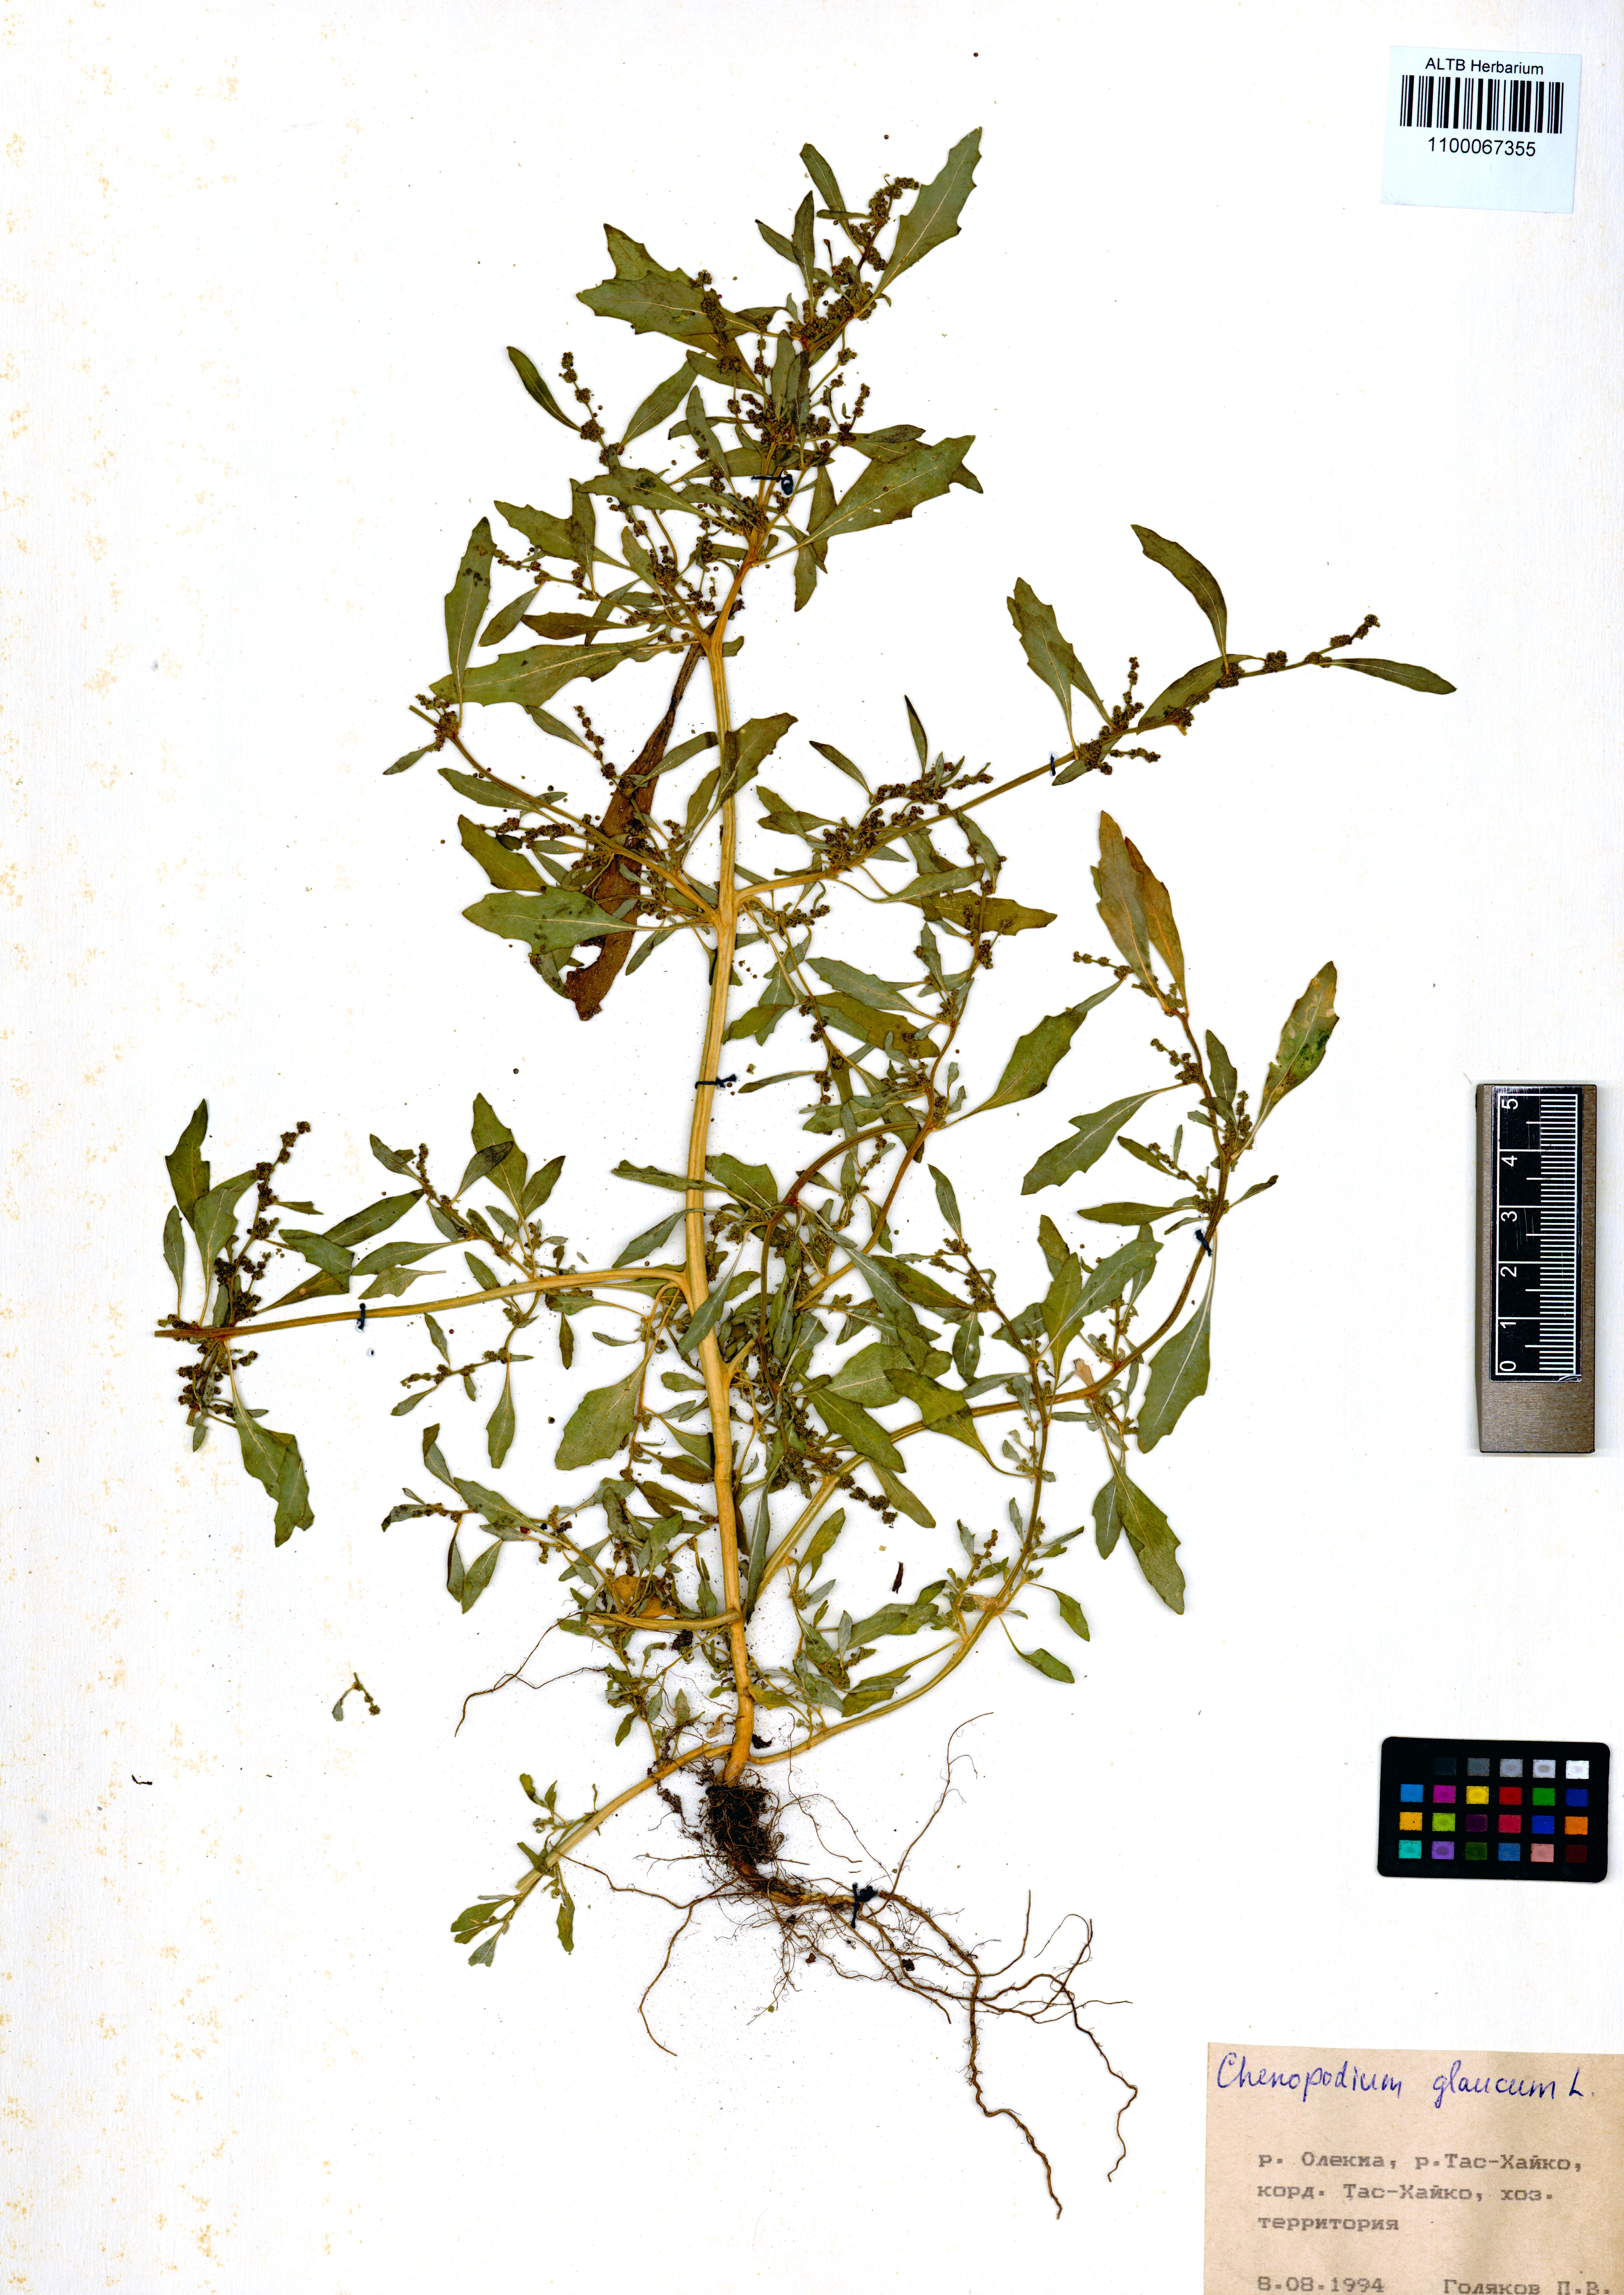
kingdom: Plantae
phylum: Tracheophyta
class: Magnoliopsida
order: Caryophyllales
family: Amaranthaceae
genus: Oxybasis
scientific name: Oxybasis glauca
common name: Glaucous goosefoot
